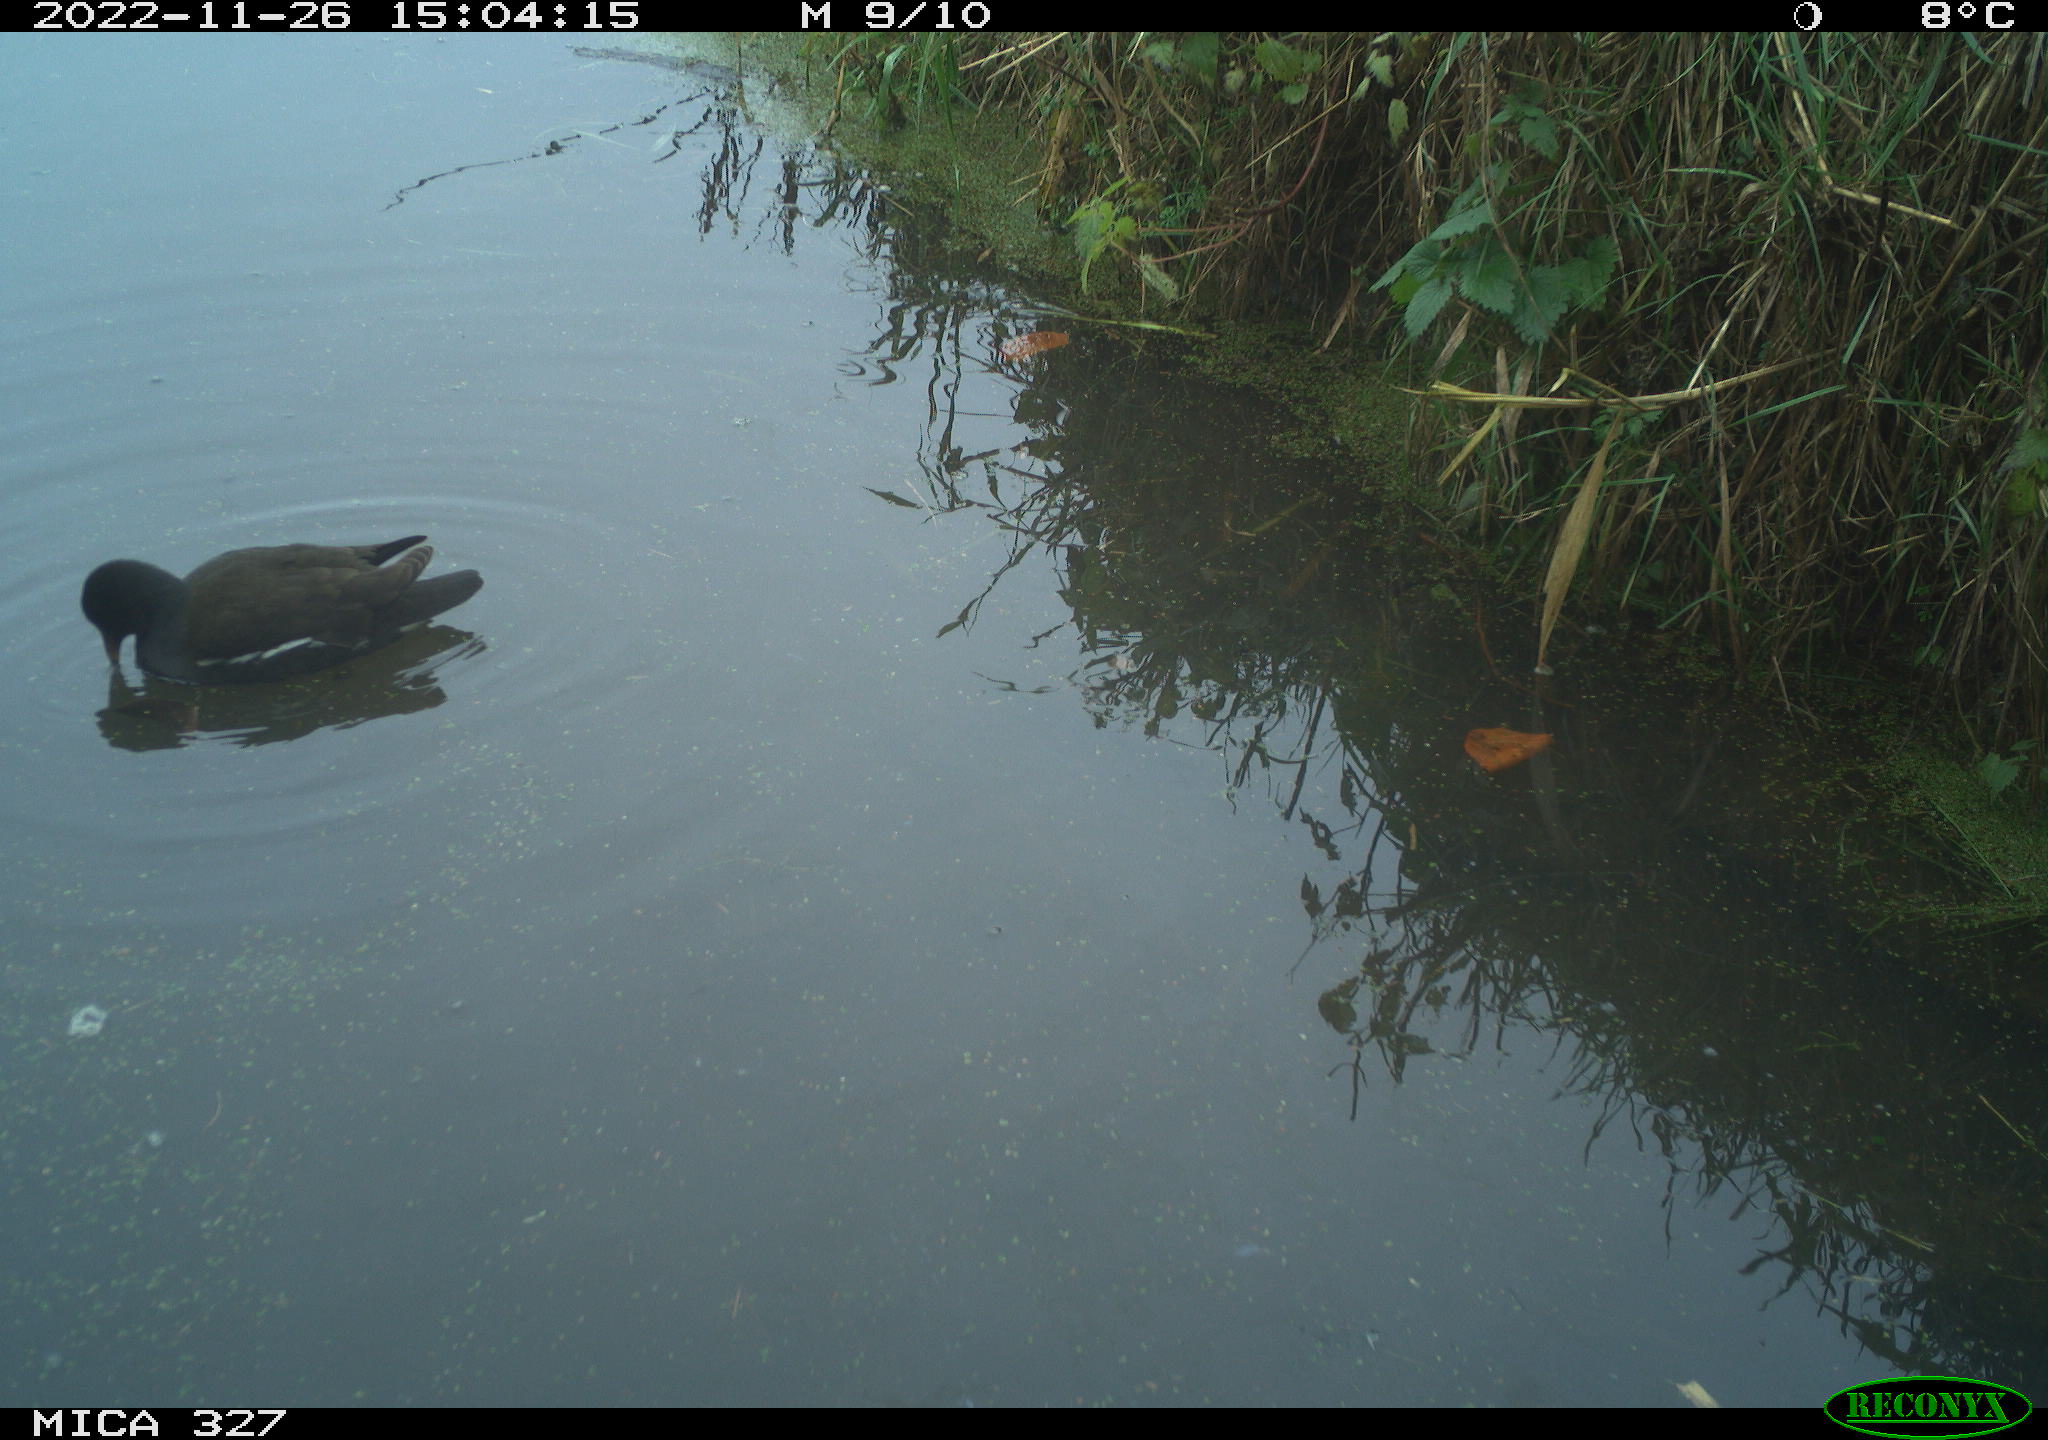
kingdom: Animalia
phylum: Chordata
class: Aves
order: Gruiformes
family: Rallidae
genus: Gallinula
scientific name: Gallinula chloropus
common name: Common moorhen
